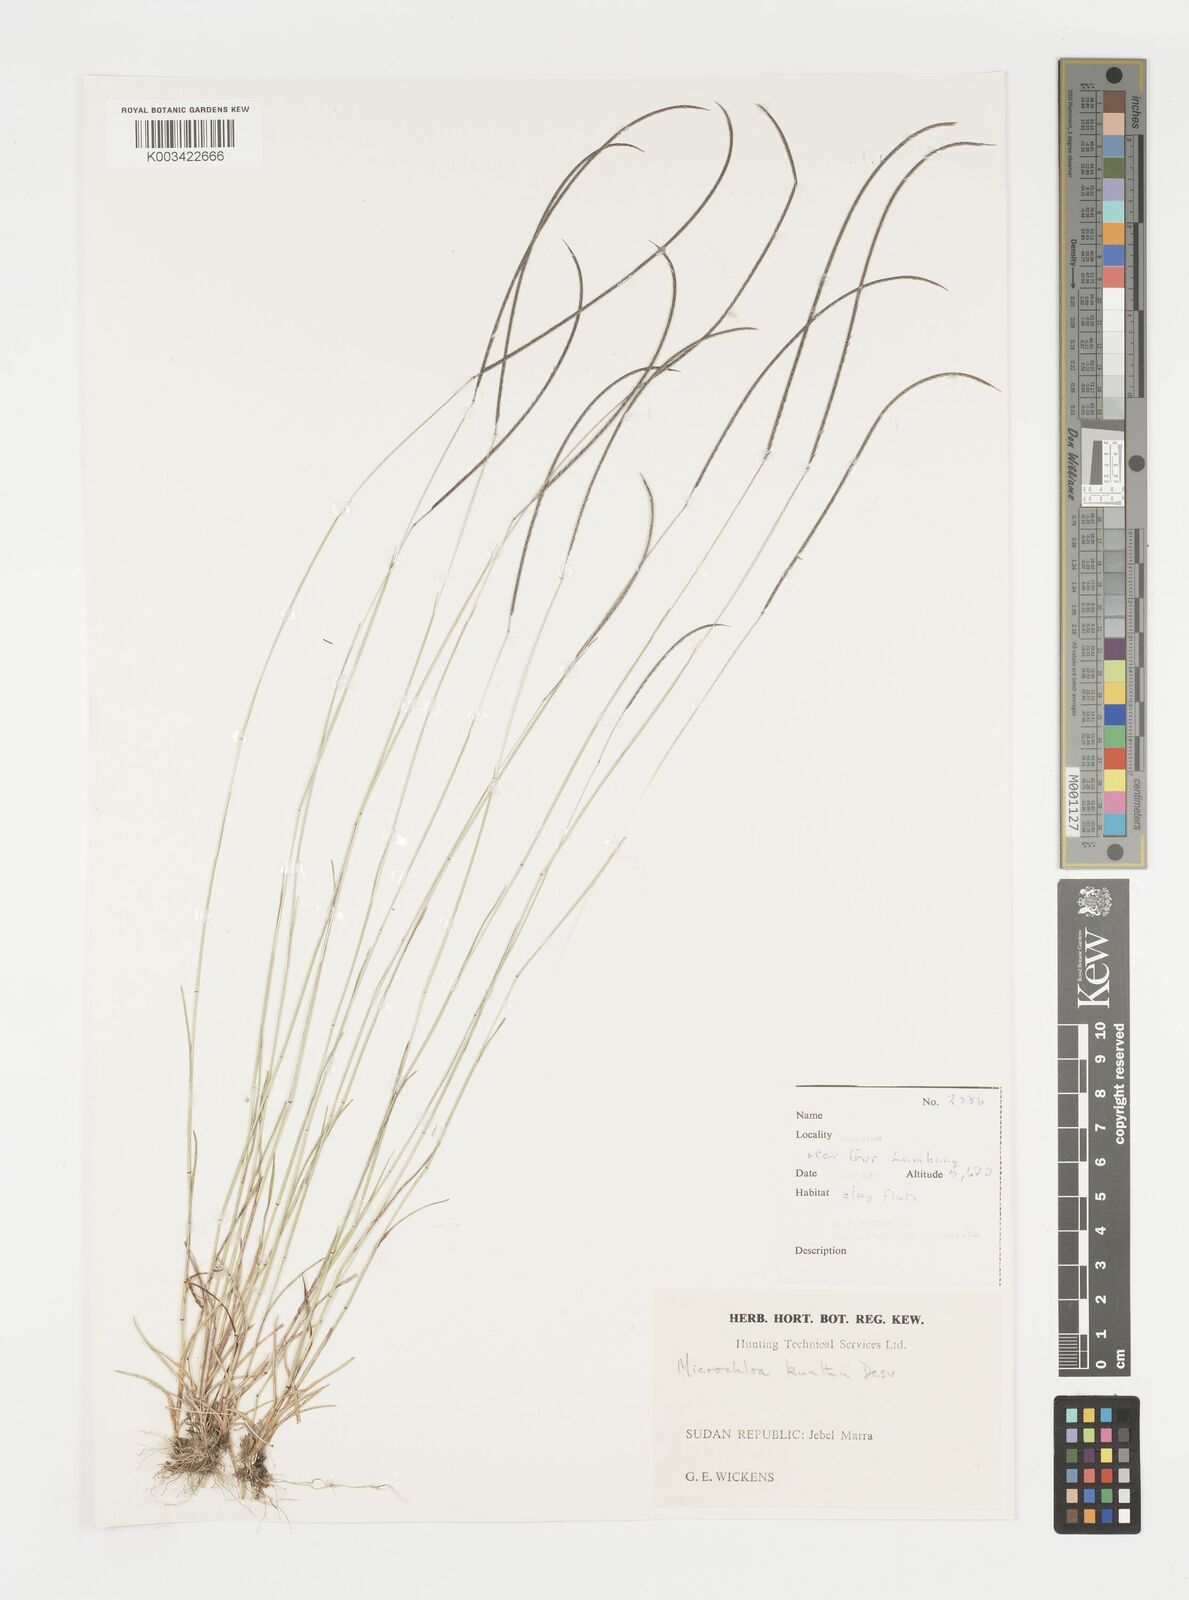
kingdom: Plantae
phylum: Tracheophyta
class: Liliopsida
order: Poales
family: Poaceae
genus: Microchloa
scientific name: Microchloa kunthii
